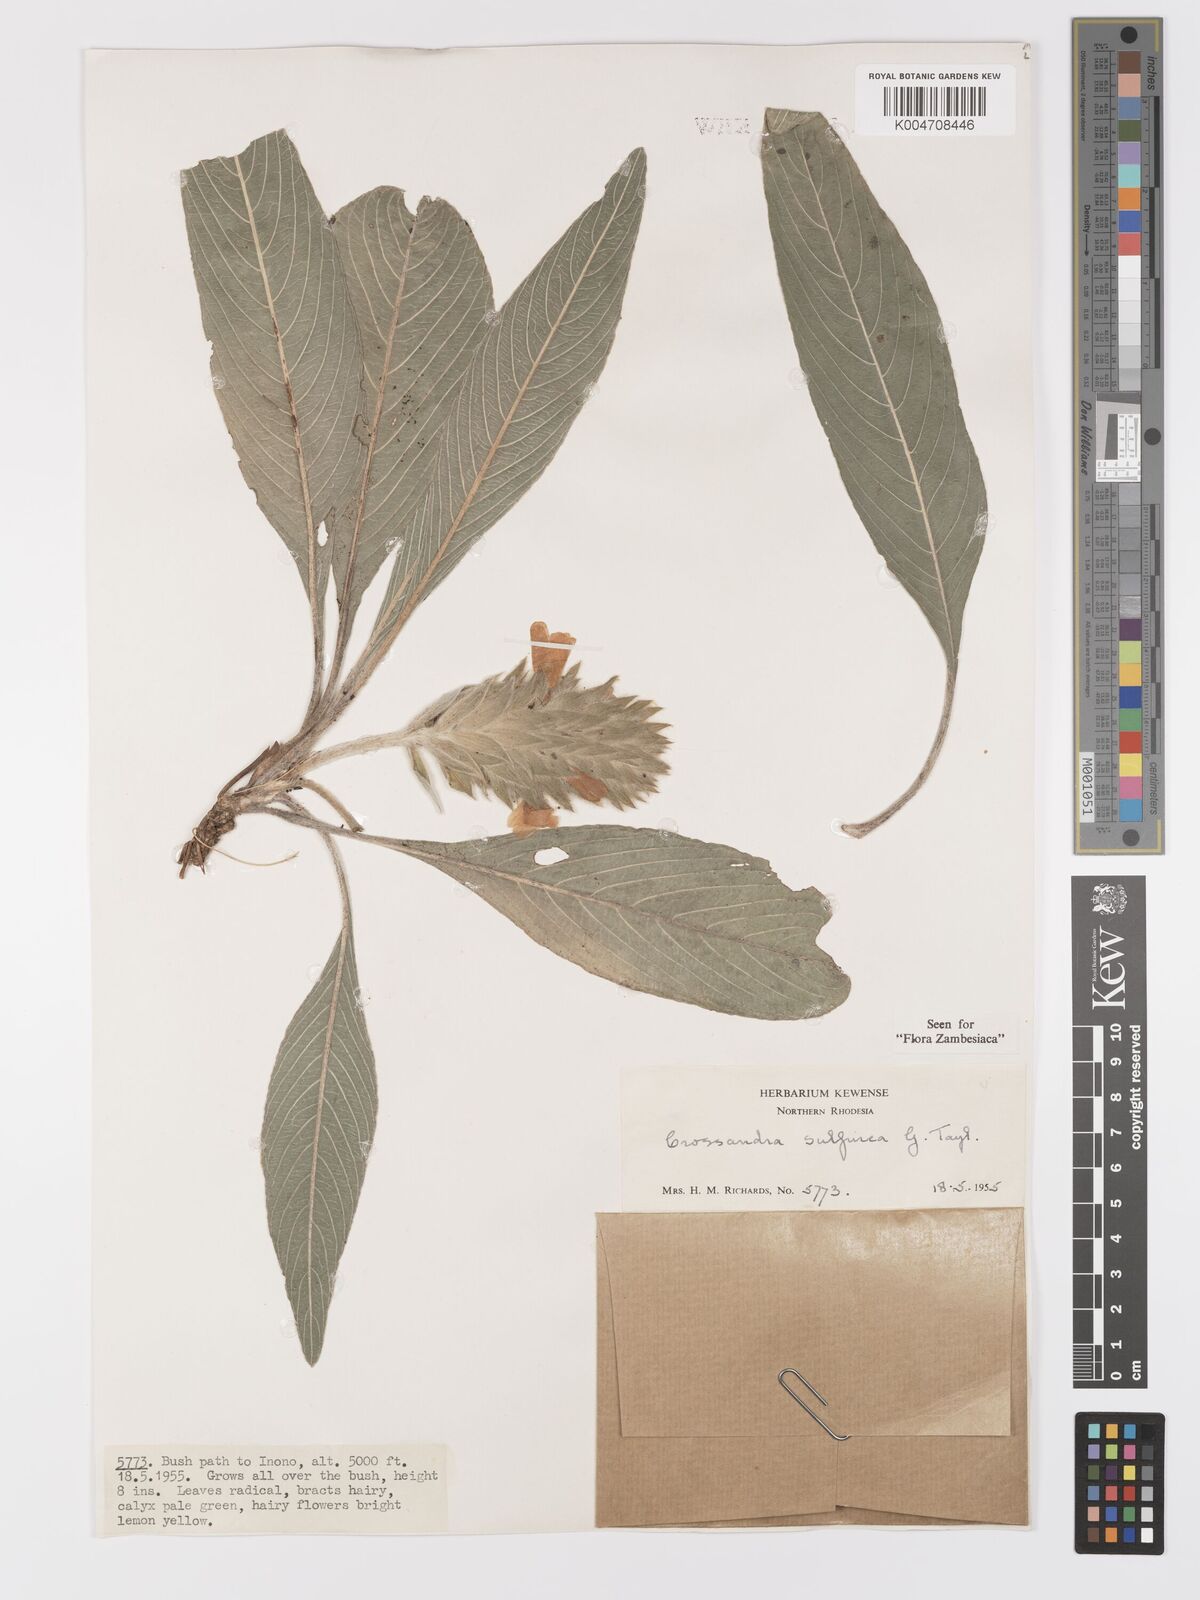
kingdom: Plantae
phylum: Tracheophyta
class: Magnoliopsida
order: Lamiales
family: Acanthaceae
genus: Crossandra
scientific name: Crossandra sulphurea
